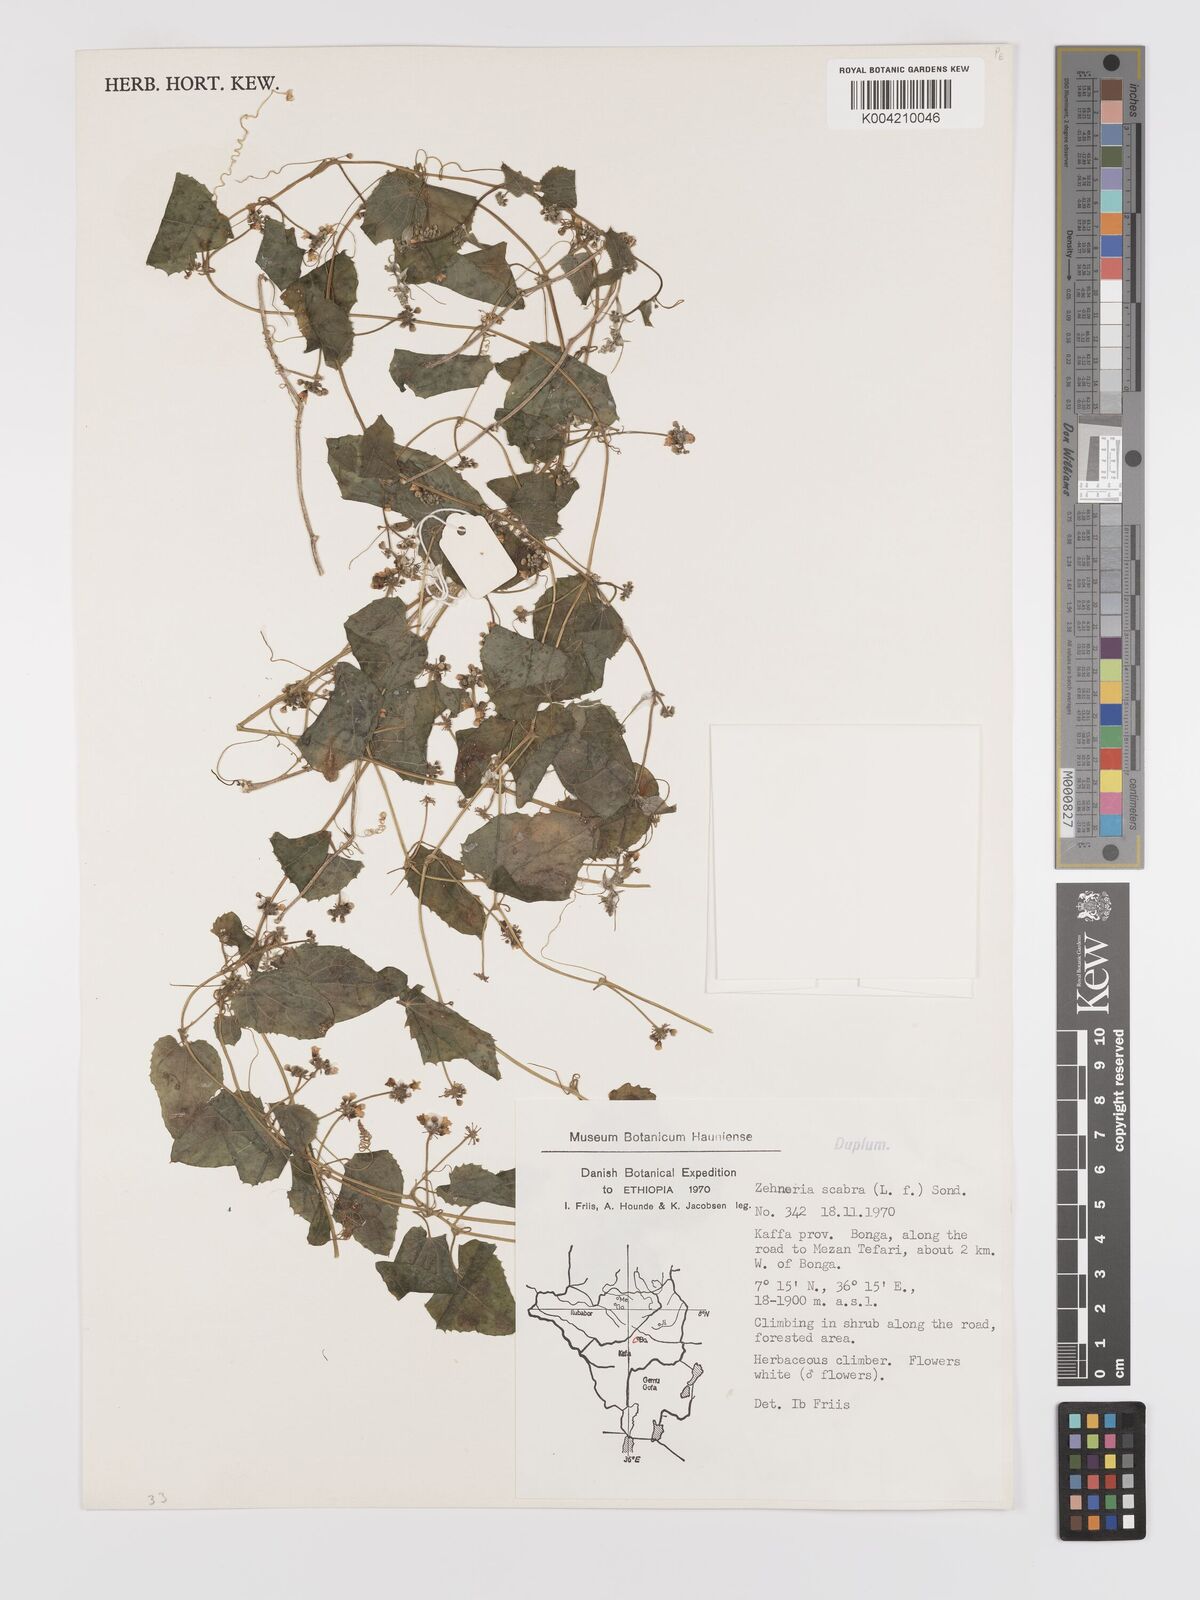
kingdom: Plantae
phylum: Tracheophyta
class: Magnoliopsida
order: Cucurbitales
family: Cucurbitaceae
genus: Zehneria
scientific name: Zehneria scabra
